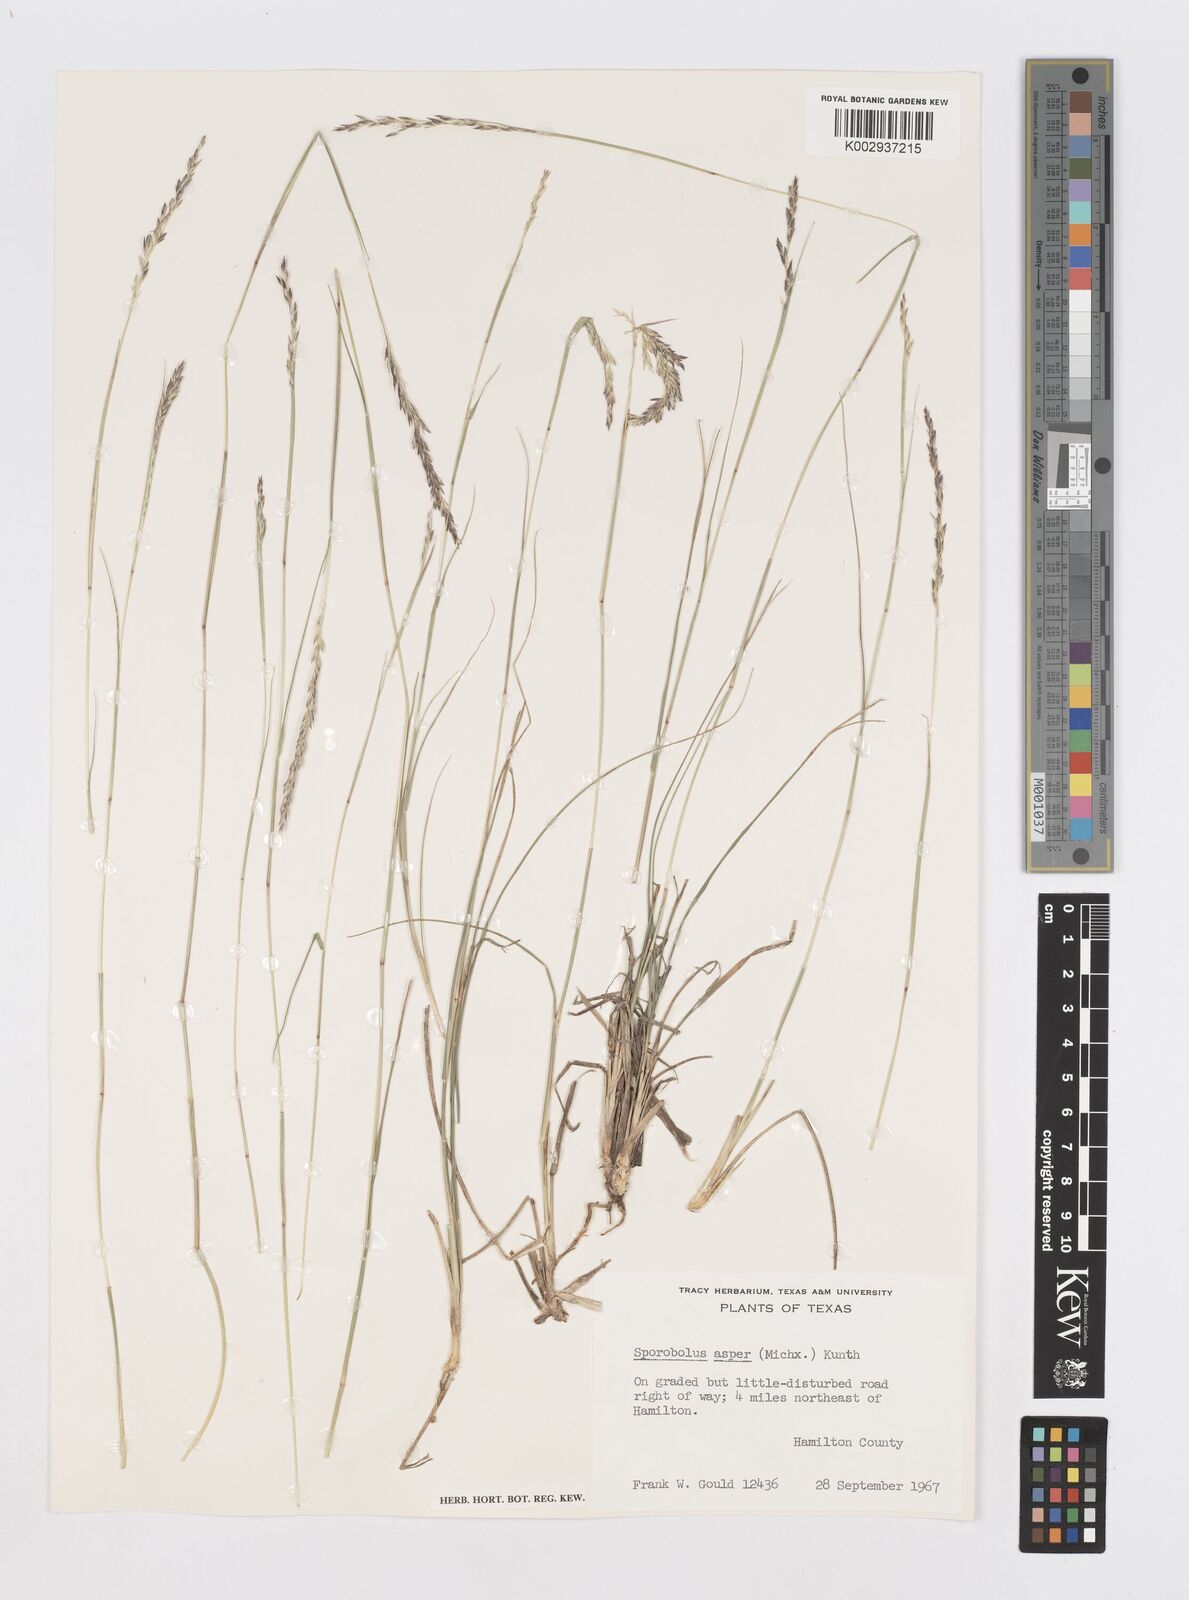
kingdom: Plantae
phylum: Tracheophyta
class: Liliopsida
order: Poales
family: Poaceae
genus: Sporobolus
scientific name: Sporobolus compositus
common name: Rough dropseed
